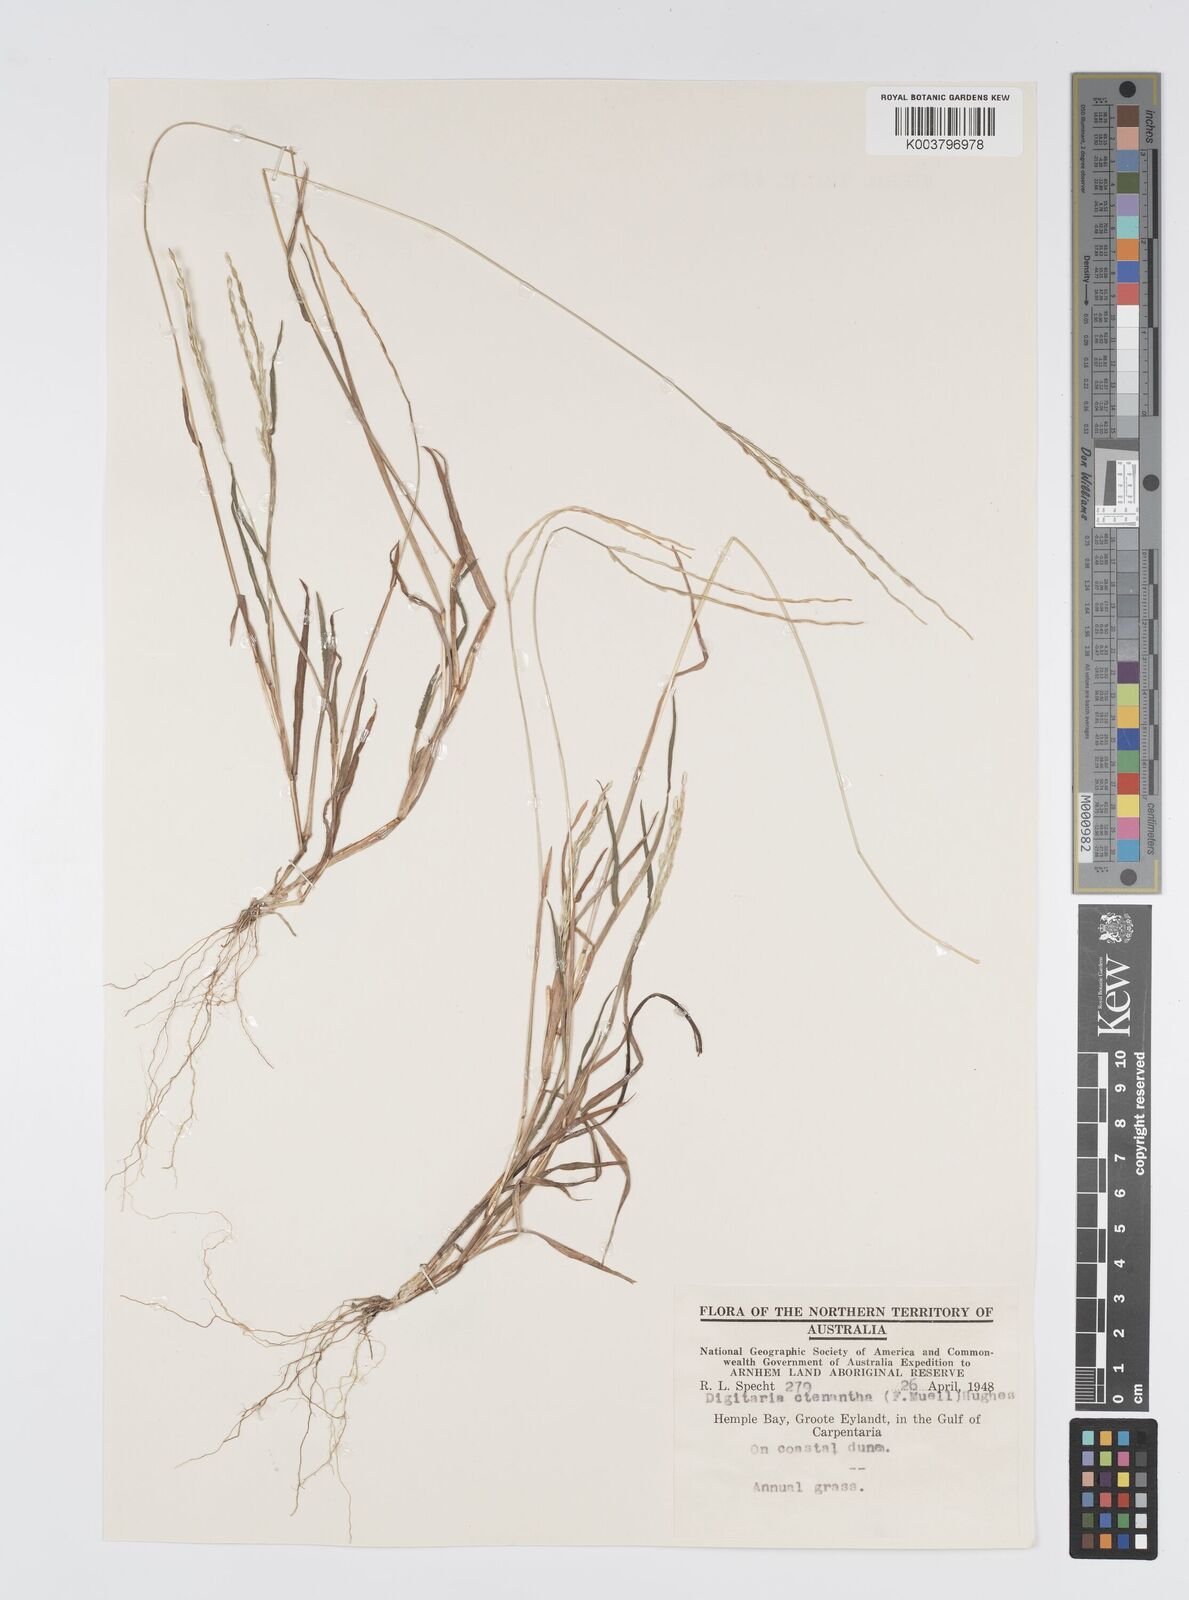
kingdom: Plantae
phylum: Tracheophyta
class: Liliopsida
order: Poales
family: Poaceae
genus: Digitaria
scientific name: Digitaria ctenantha
